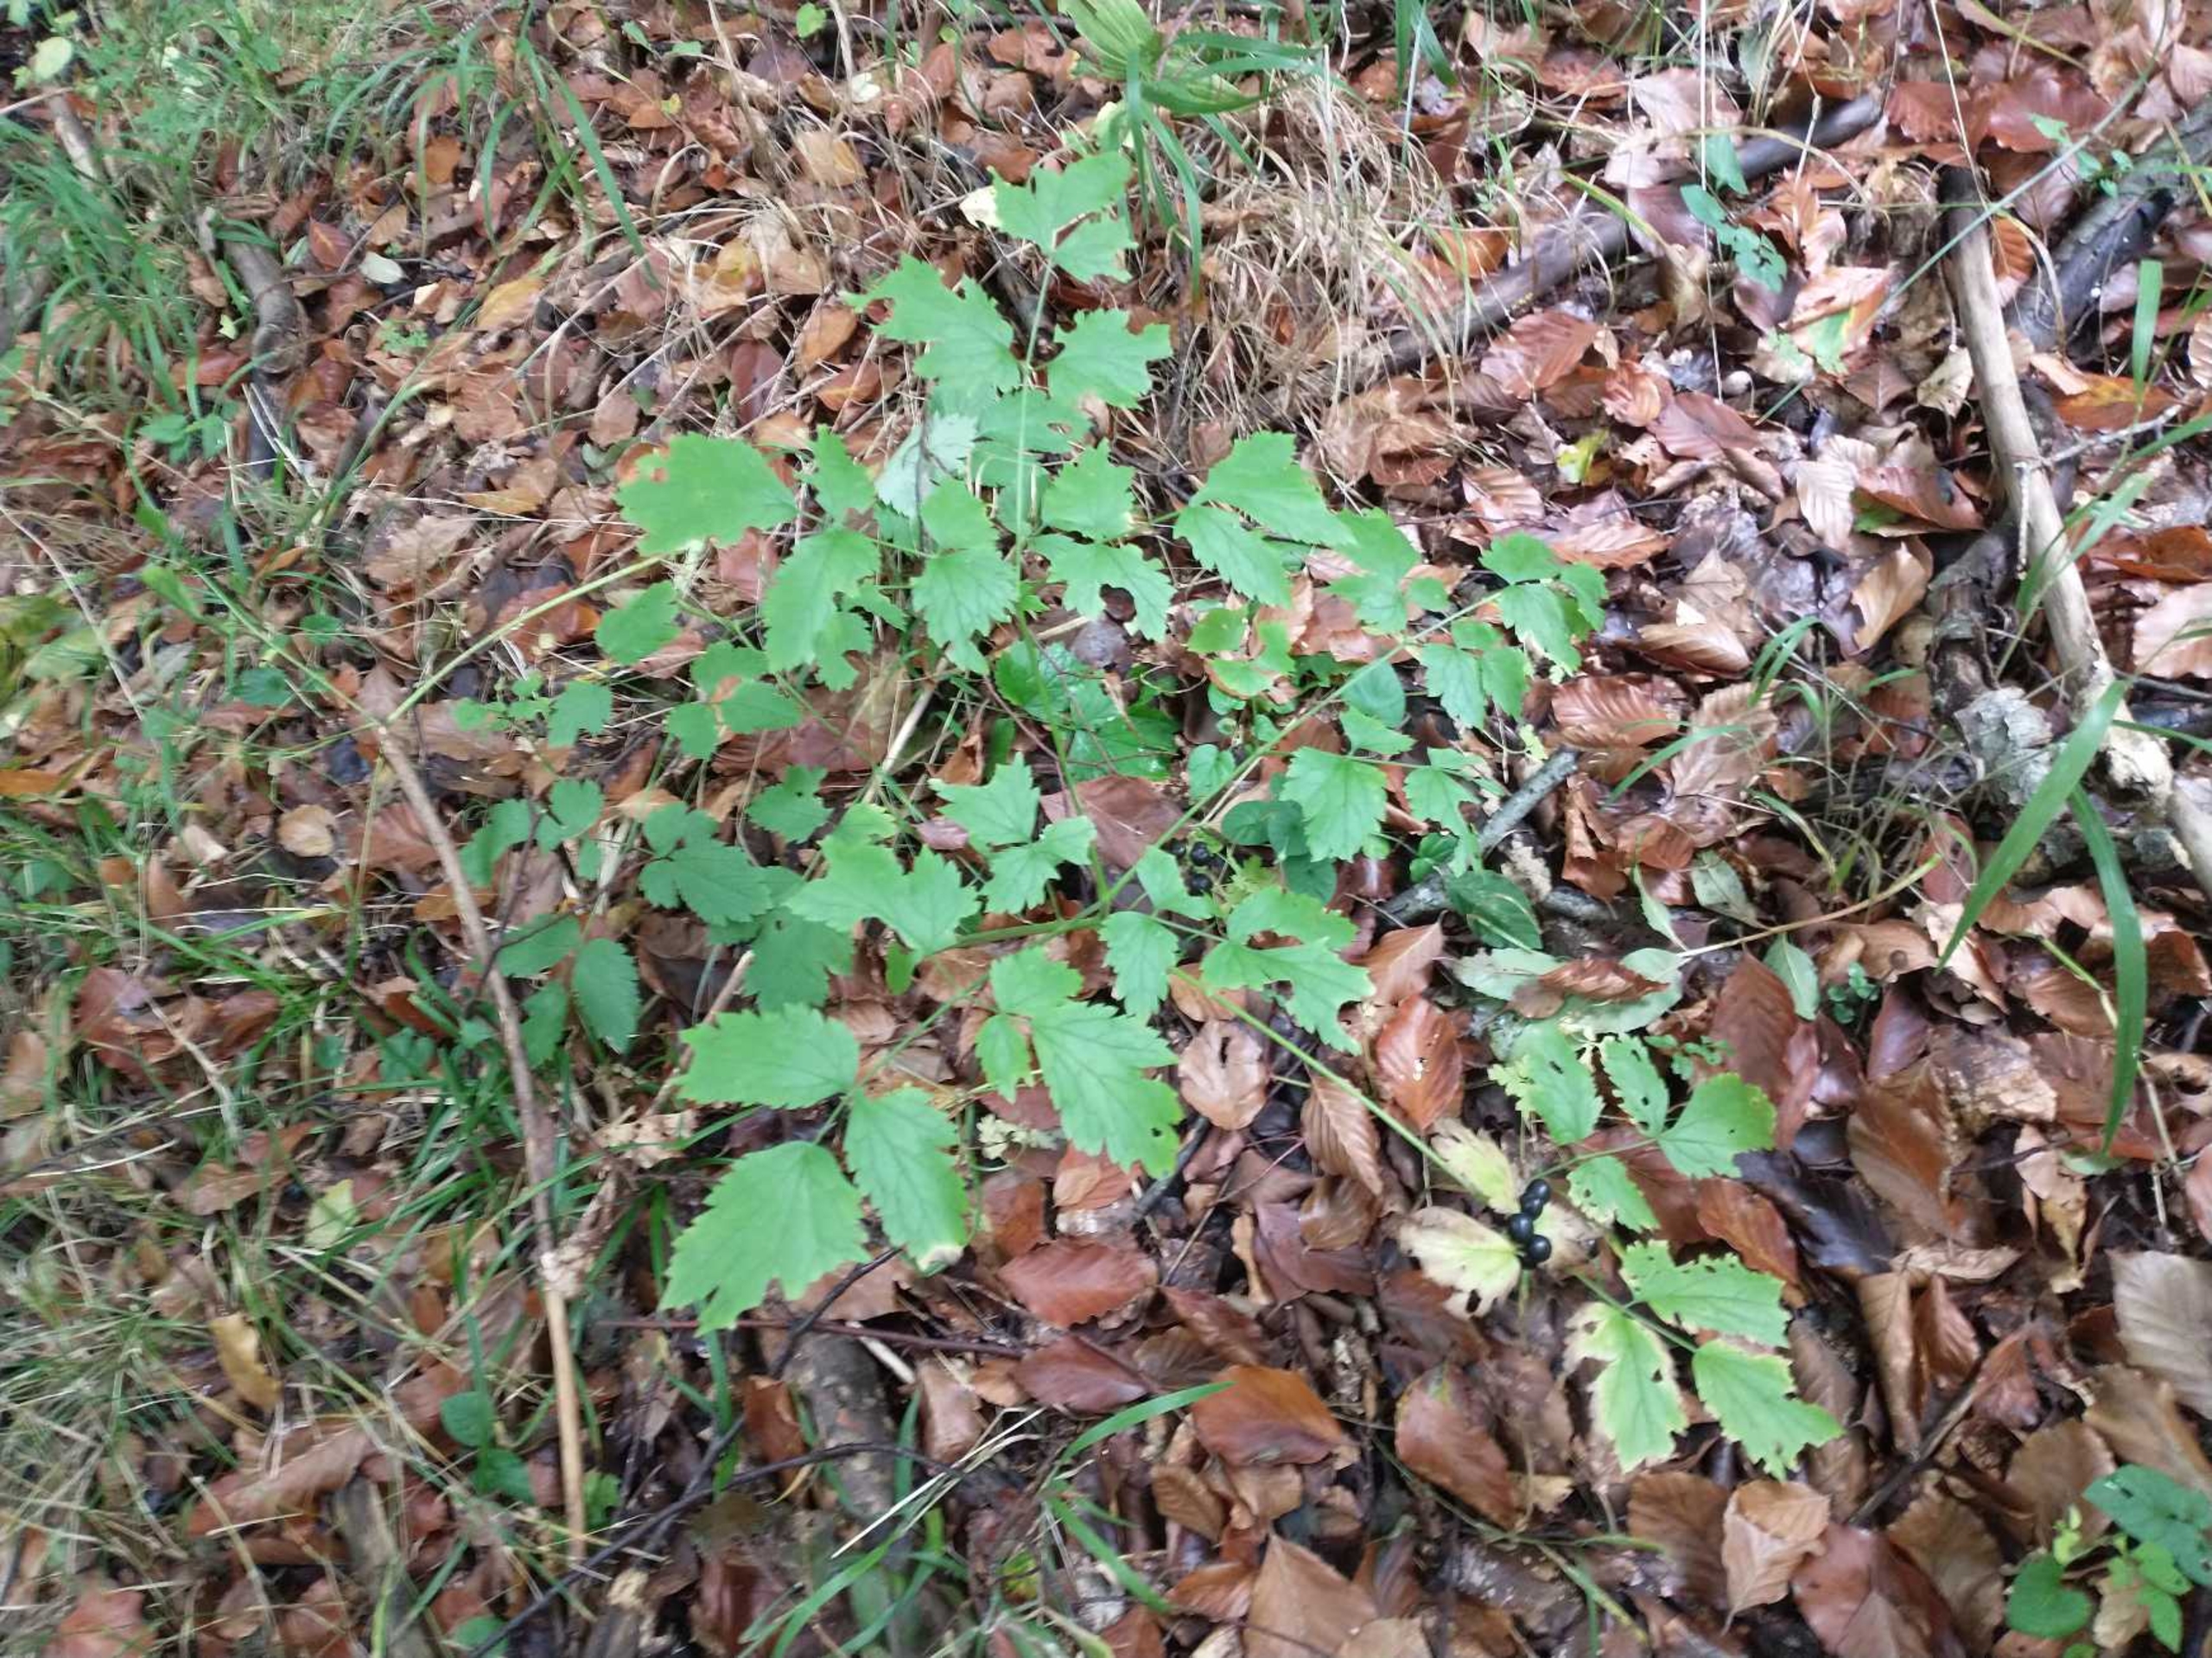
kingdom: Plantae
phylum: Tracheophyta
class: Magnoliopsida
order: Ranunculales
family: Ranunculaceae
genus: Actaea
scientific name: Actaea spicata
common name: Druemunke
